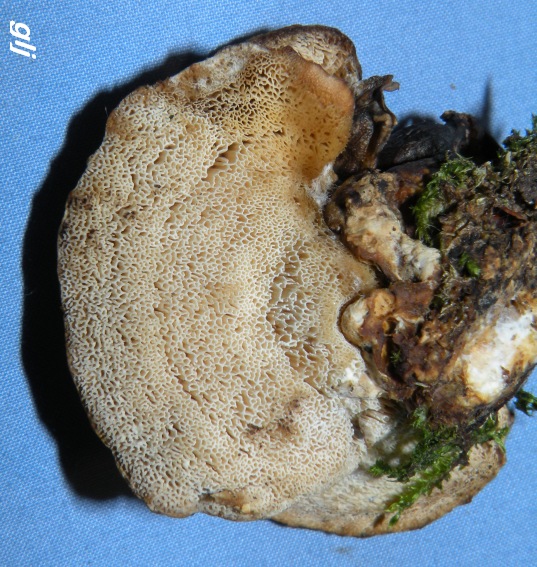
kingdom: Fungi
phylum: Basidiomycota
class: Agaricomycetes
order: Polyporales
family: Phanerochaetaceae
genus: Bjerkandera
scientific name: Bjerkandera fumosa
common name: grågul sodporesvamp
